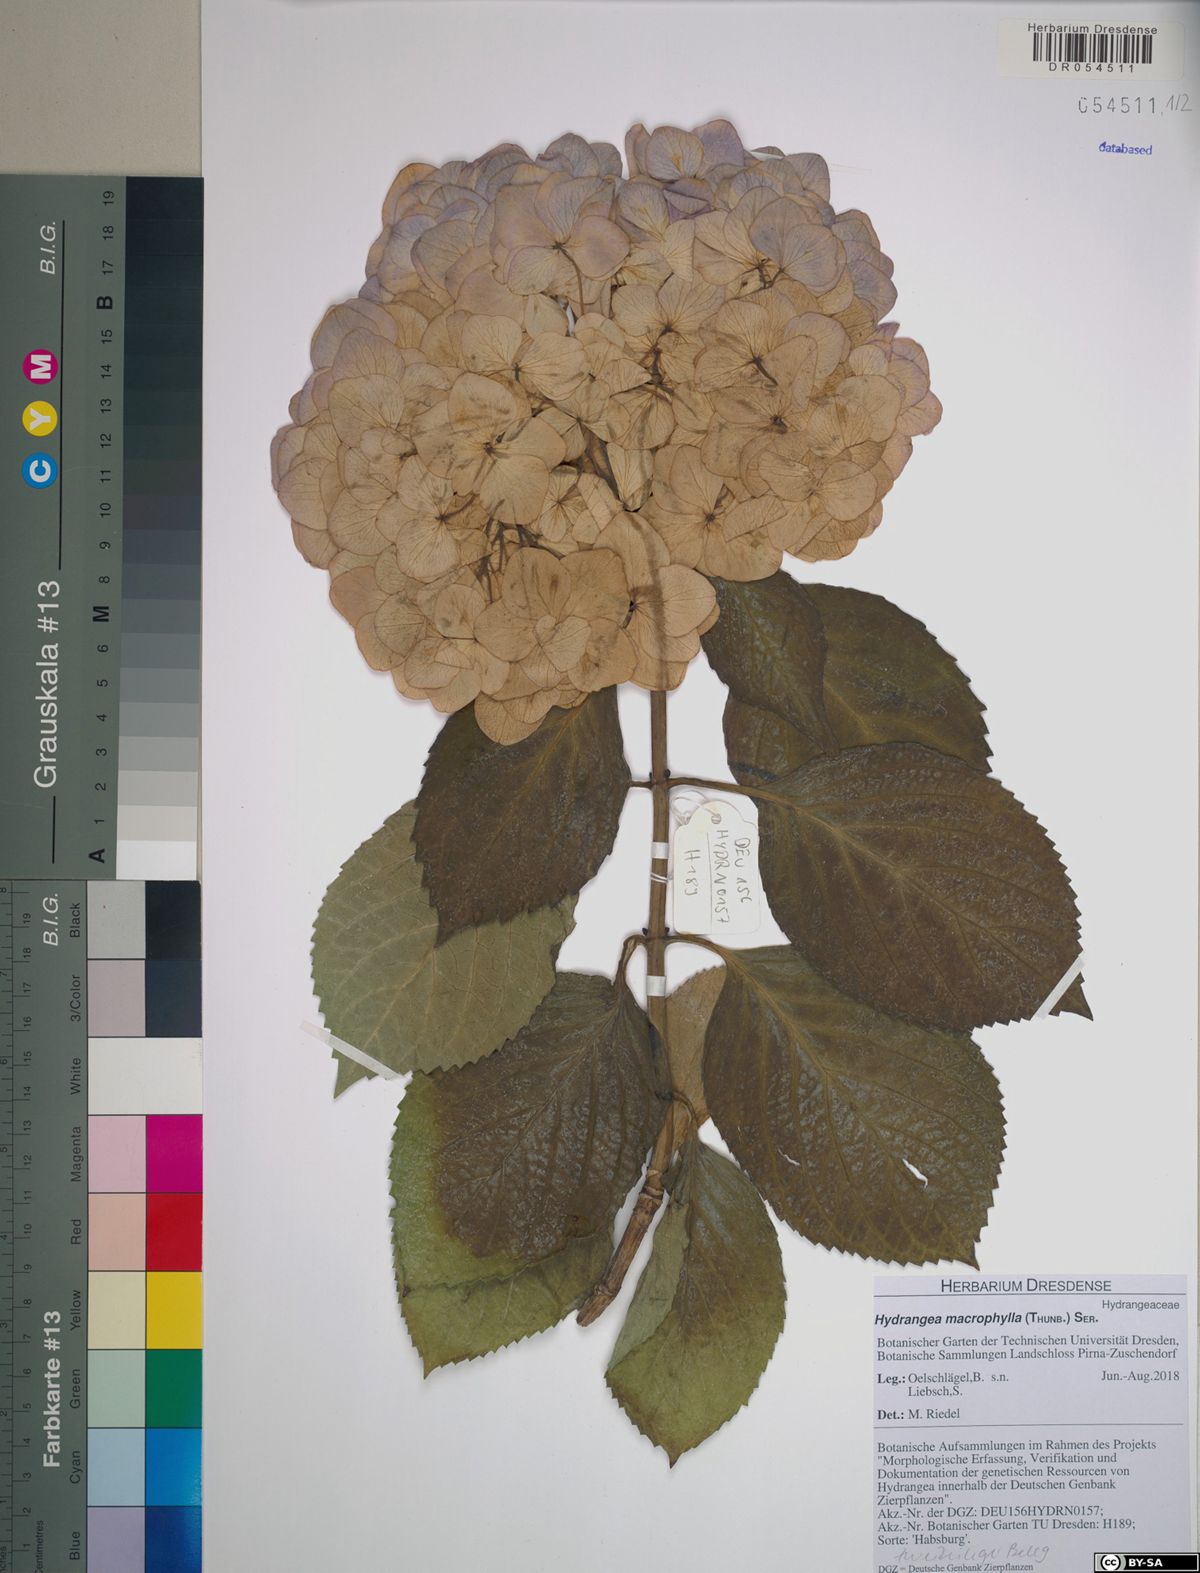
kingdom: Plantae
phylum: Tracheophyta
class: Magnoliopsida
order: Cornales
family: Hydrangeaceae
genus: Hydrangea
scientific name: Hydrangea macrophylla
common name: Hydrangea
